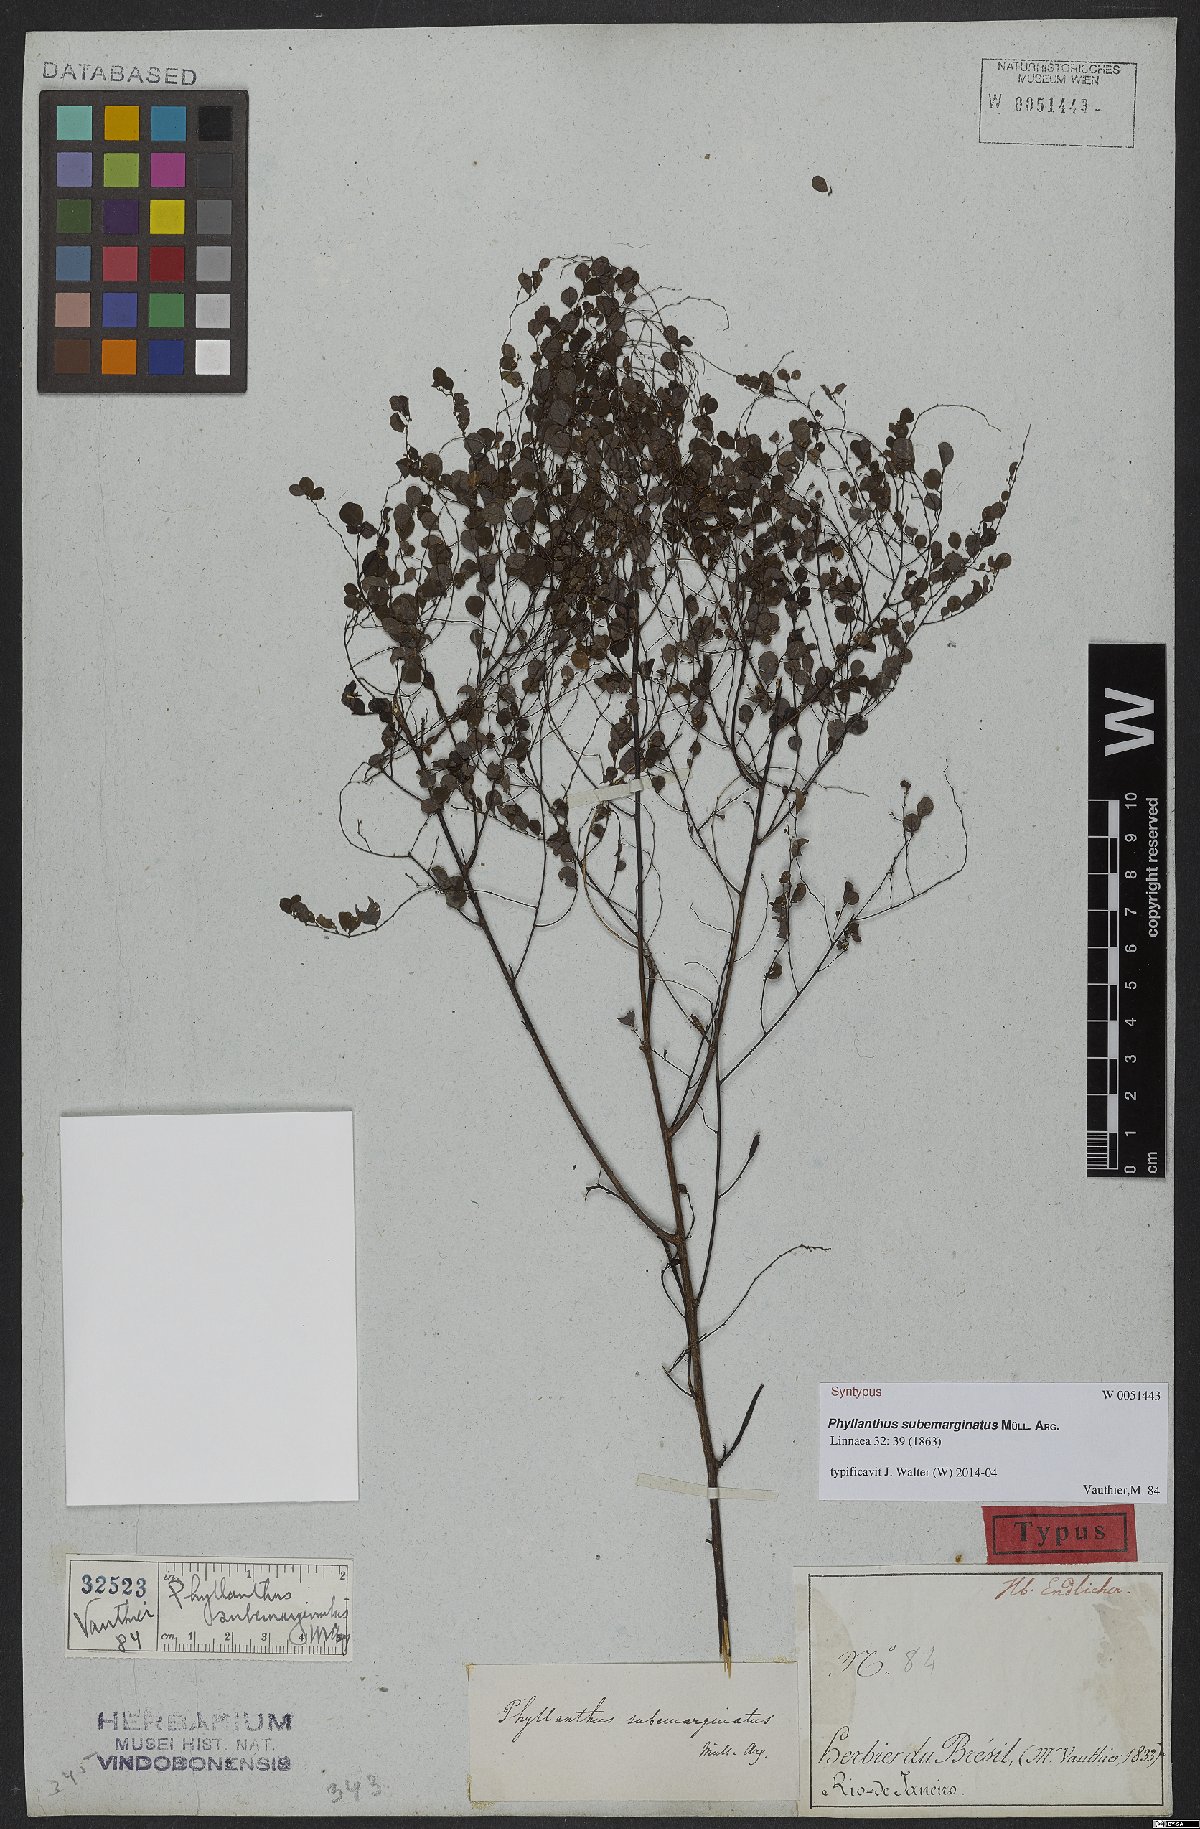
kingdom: Plantae
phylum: Tracheophyta
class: Magnoliopsida
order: Malpighiales
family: Phyllanthaceae
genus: Phyllanthus
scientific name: Phyllanthus subemarginatus
